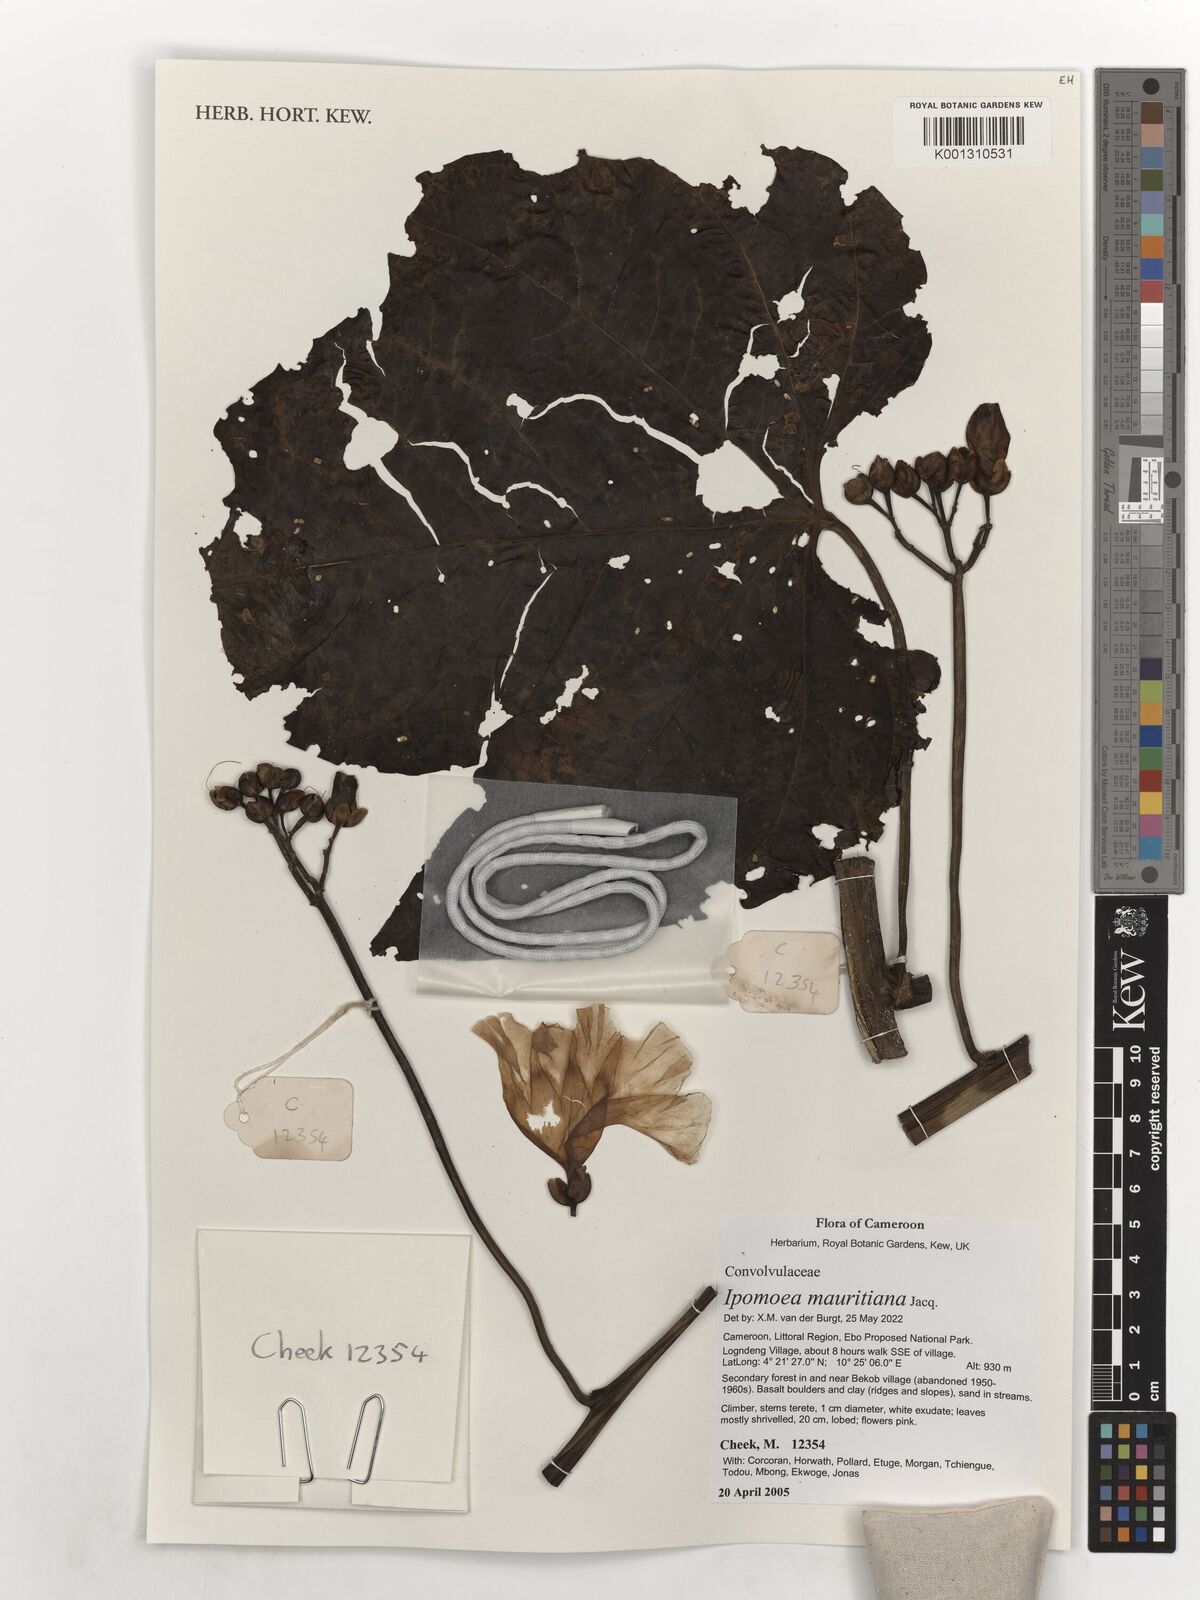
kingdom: Plantae
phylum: Tracheophyta
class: Magnoliopsida
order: Solanales
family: Convolvulaceae
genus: Ipomoea
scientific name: Ipomoea mauritiana
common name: Mauritanian convolvulus
